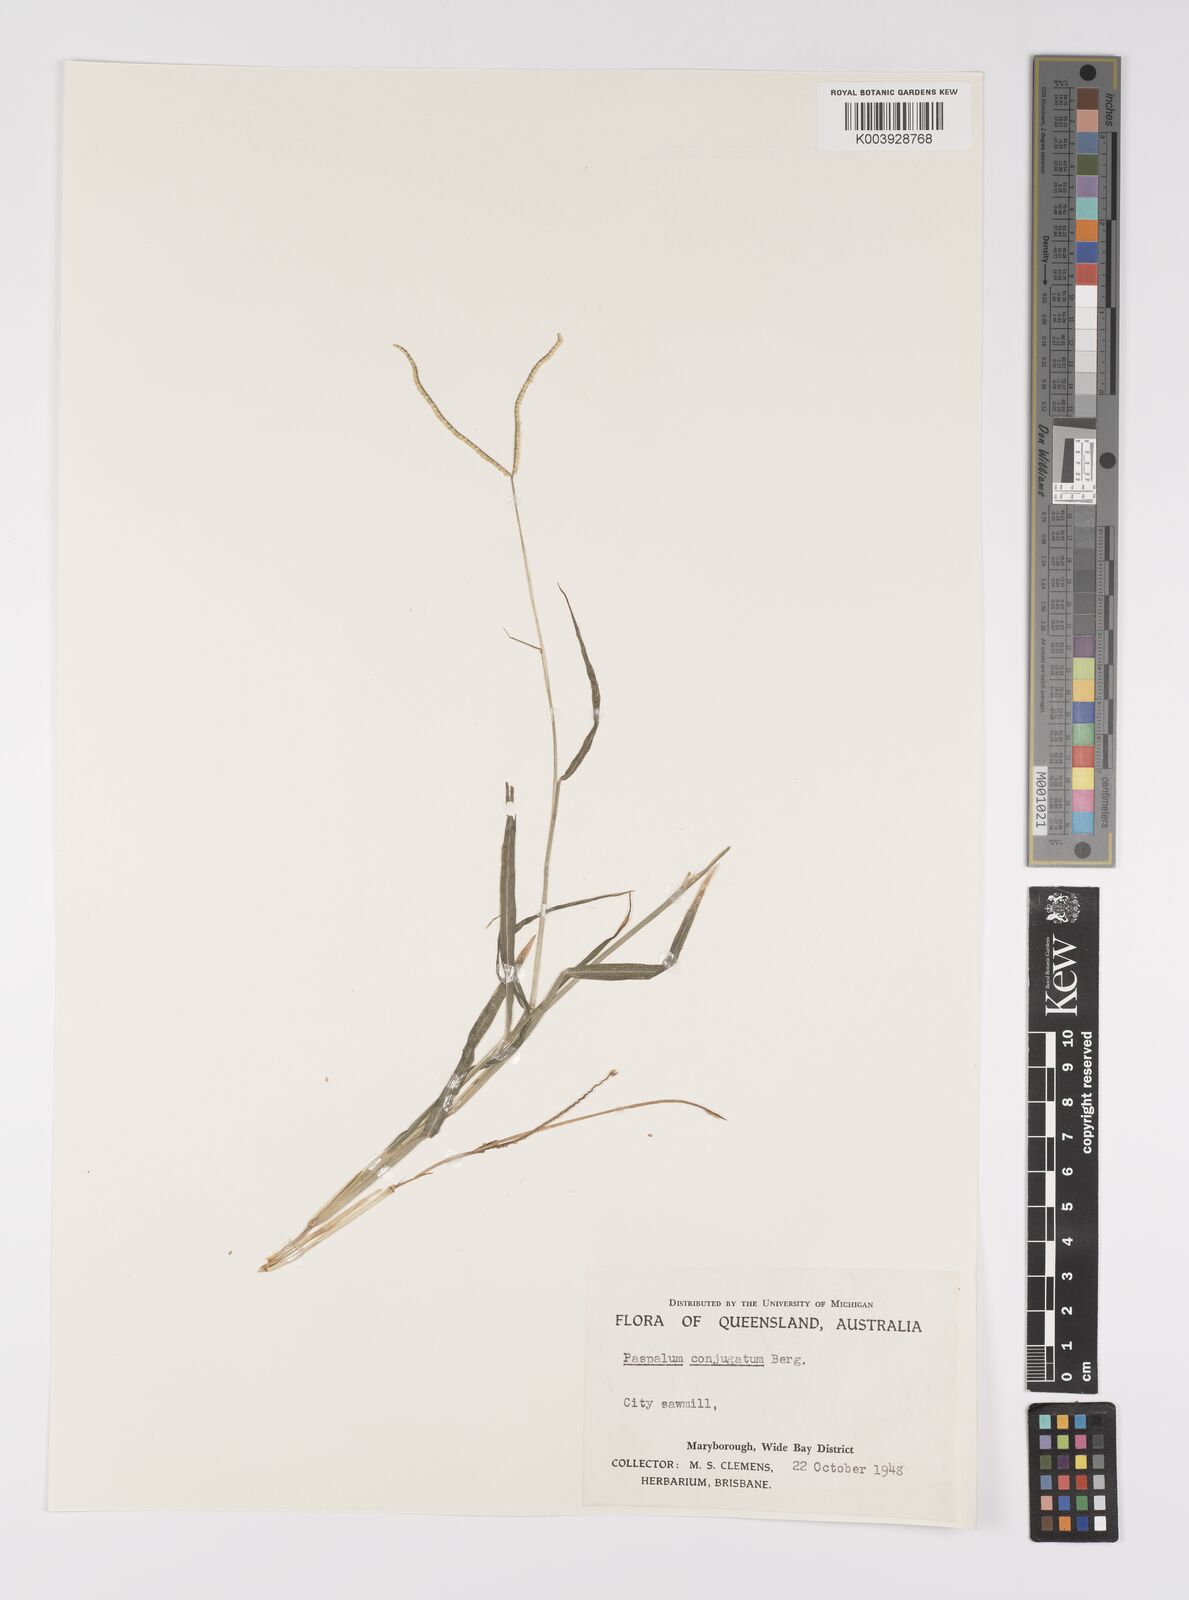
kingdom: Plantae
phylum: Tracheophyta
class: Liliopsida
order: Poales
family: Poaceae
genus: Paspalum
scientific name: Paspalum conjugatum
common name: Hilograss
